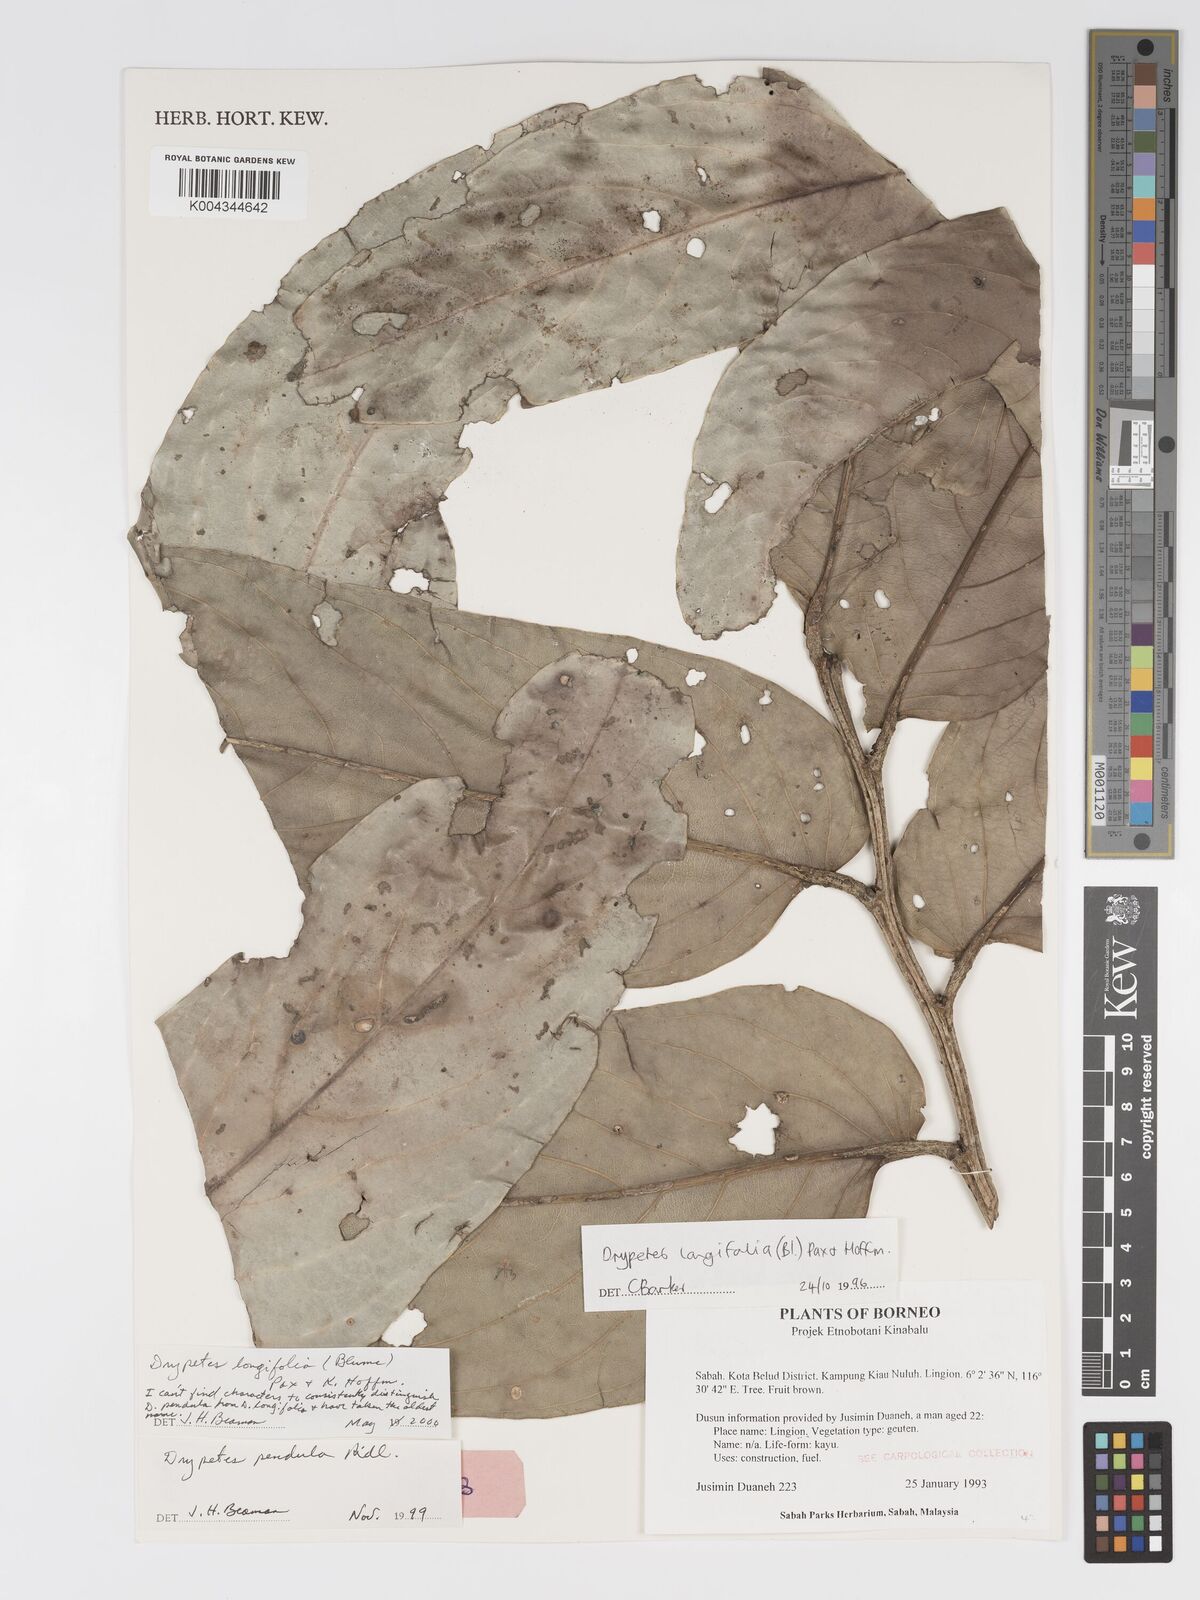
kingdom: Plantae
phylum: Tracheophyta
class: Magnoliopsida
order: Malpighiales
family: Putranjivaceae
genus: Drypetes
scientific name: Drypetes longifolia
